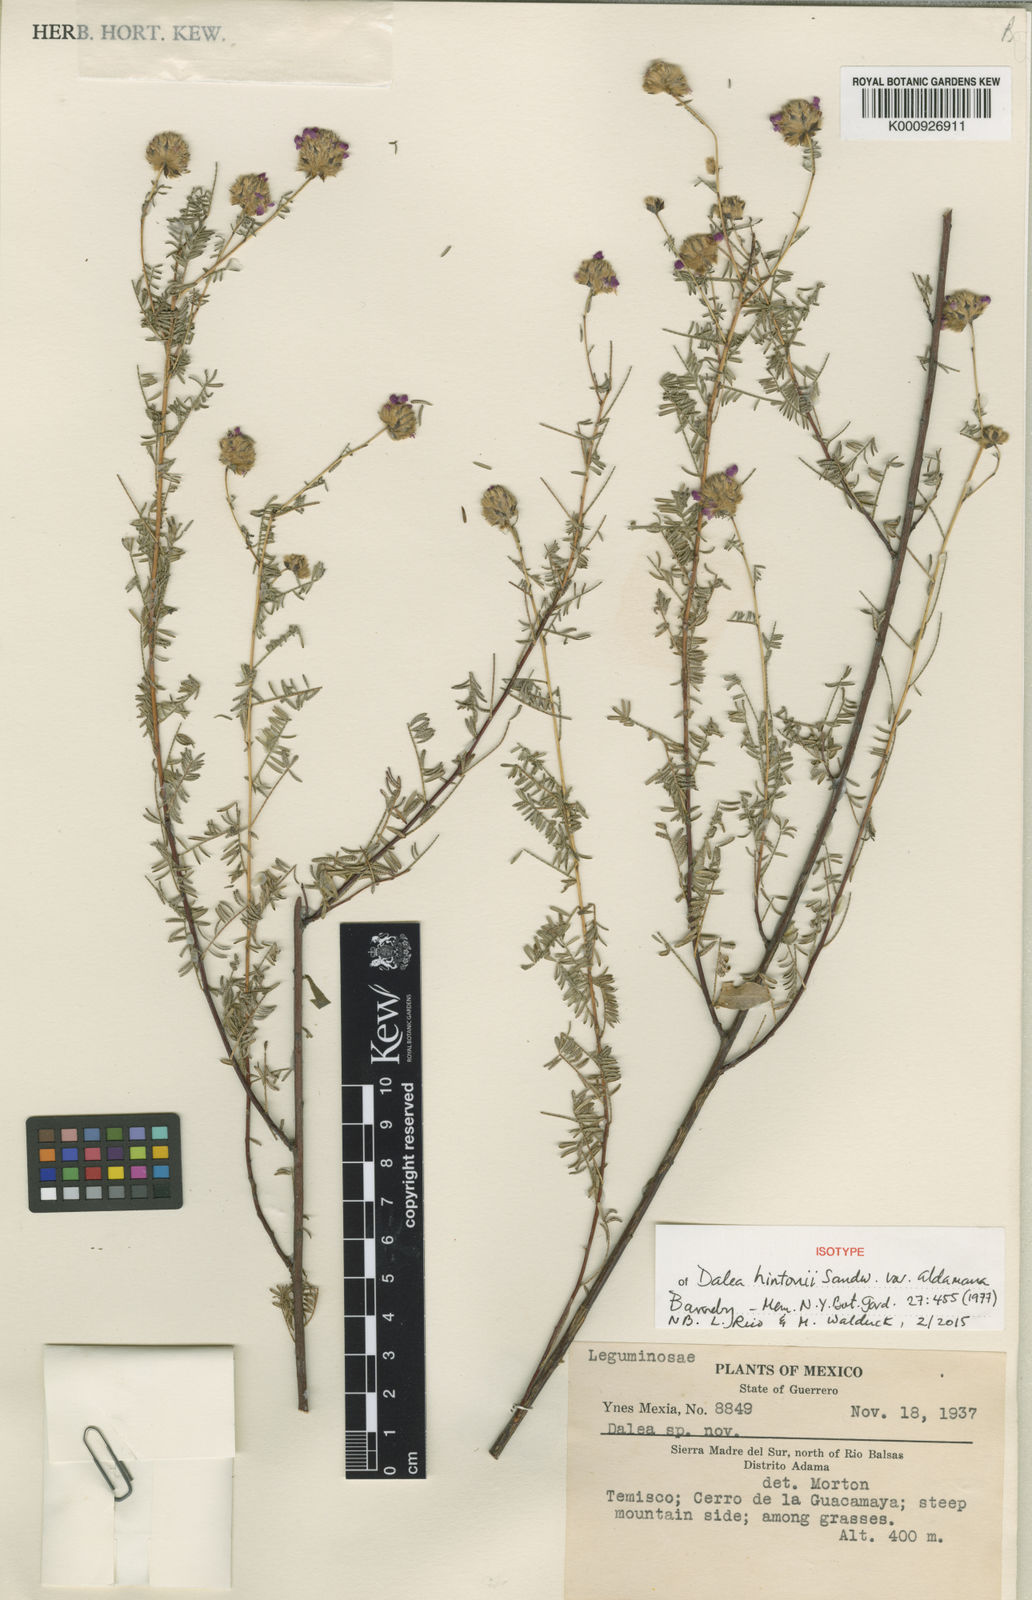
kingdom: Plantae
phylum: Tracheophyta
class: Magnoliopsida
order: Fabales
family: Fabaceae
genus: Dalea
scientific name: Dalea hintonii
